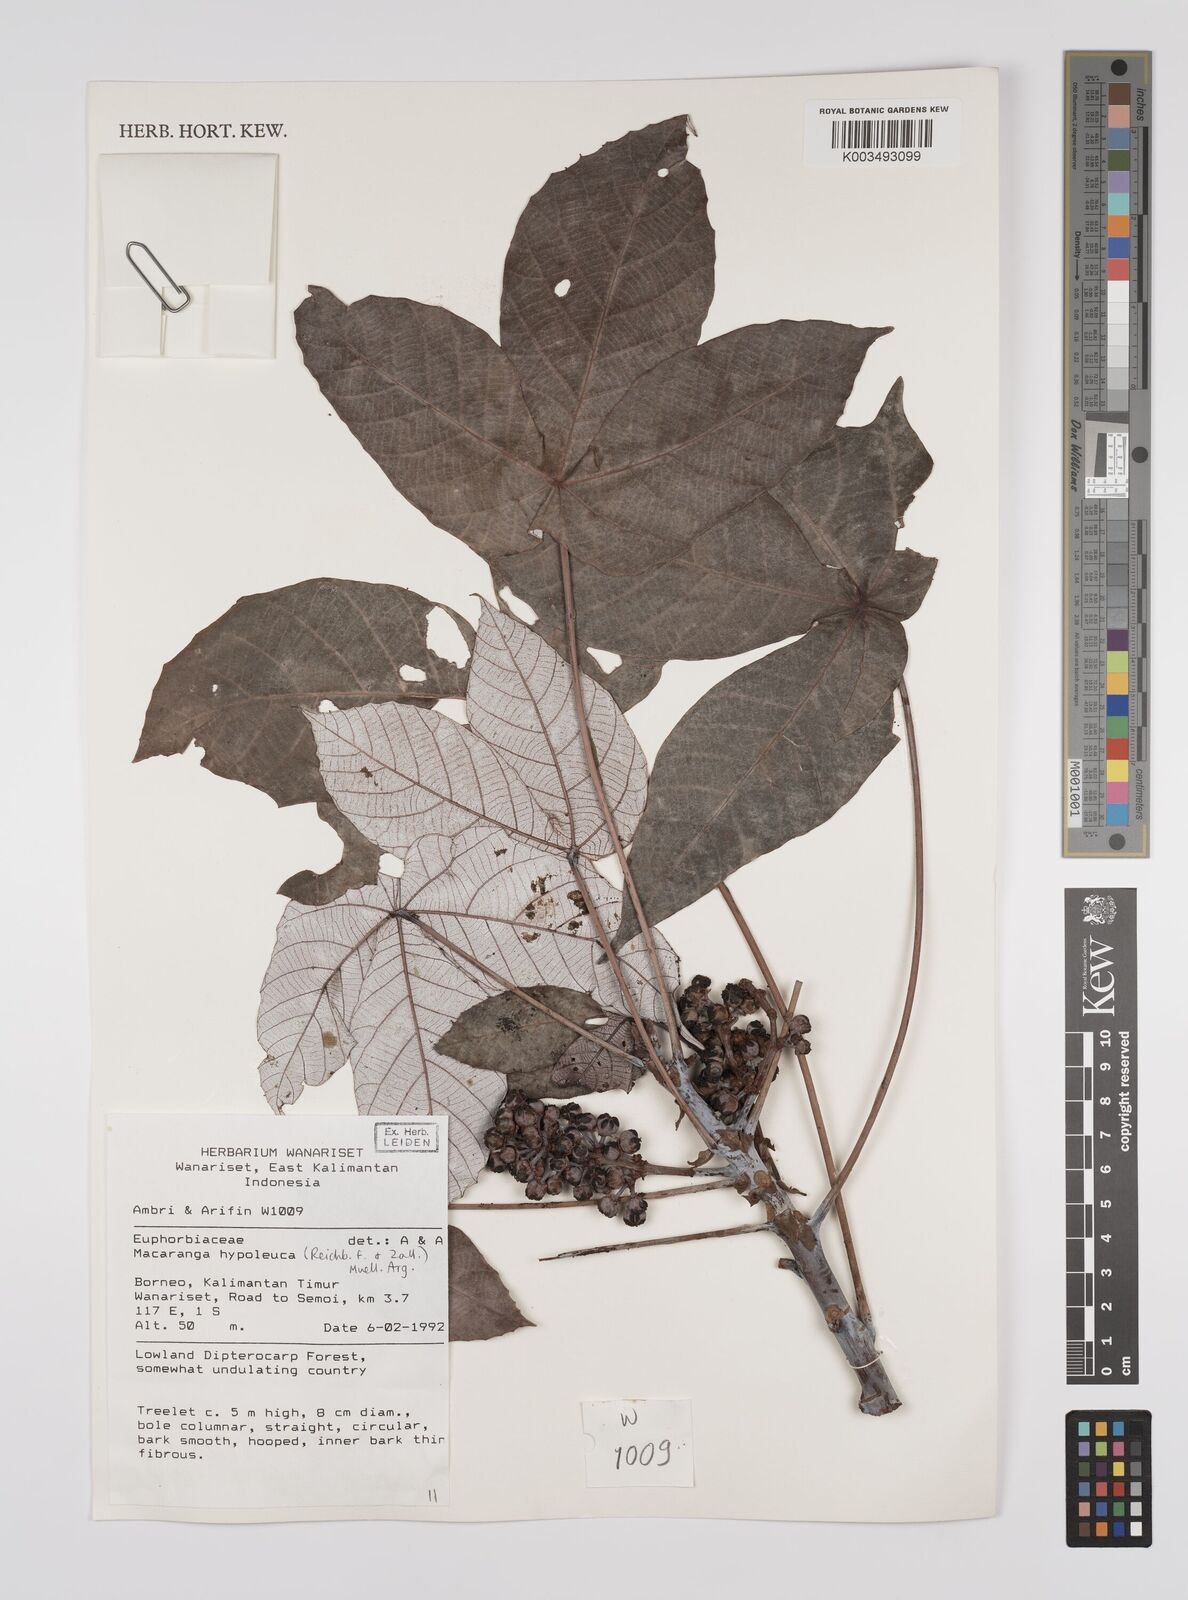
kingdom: Plantae
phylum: Tracheophyta
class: Magnoliopsida
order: Malpighiales
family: Euphorbiaceae
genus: Macaranga
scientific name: Macaranga hypoleuca
